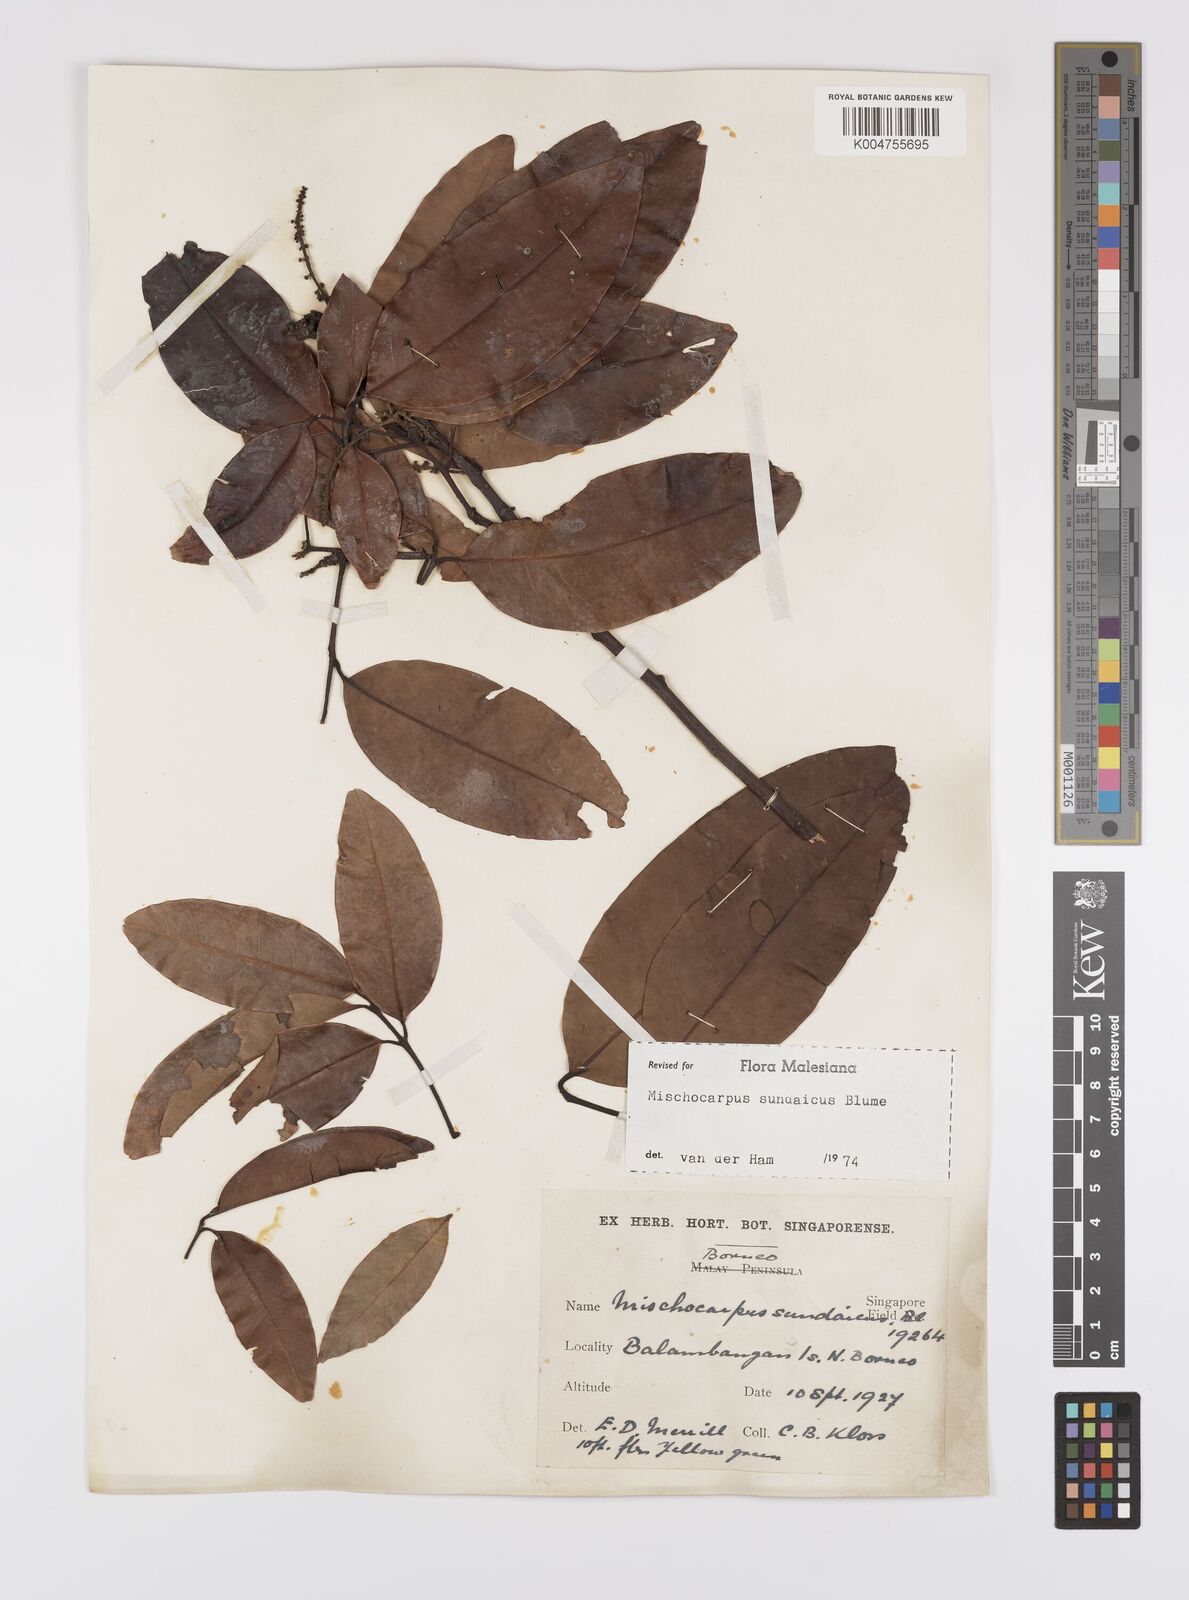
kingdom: Plantae
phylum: Tracheophyta
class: Magnoliopsida
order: Sapindales
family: Sapindaceae
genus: Mischocarpus
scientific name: Mischocarpus sundaicus
